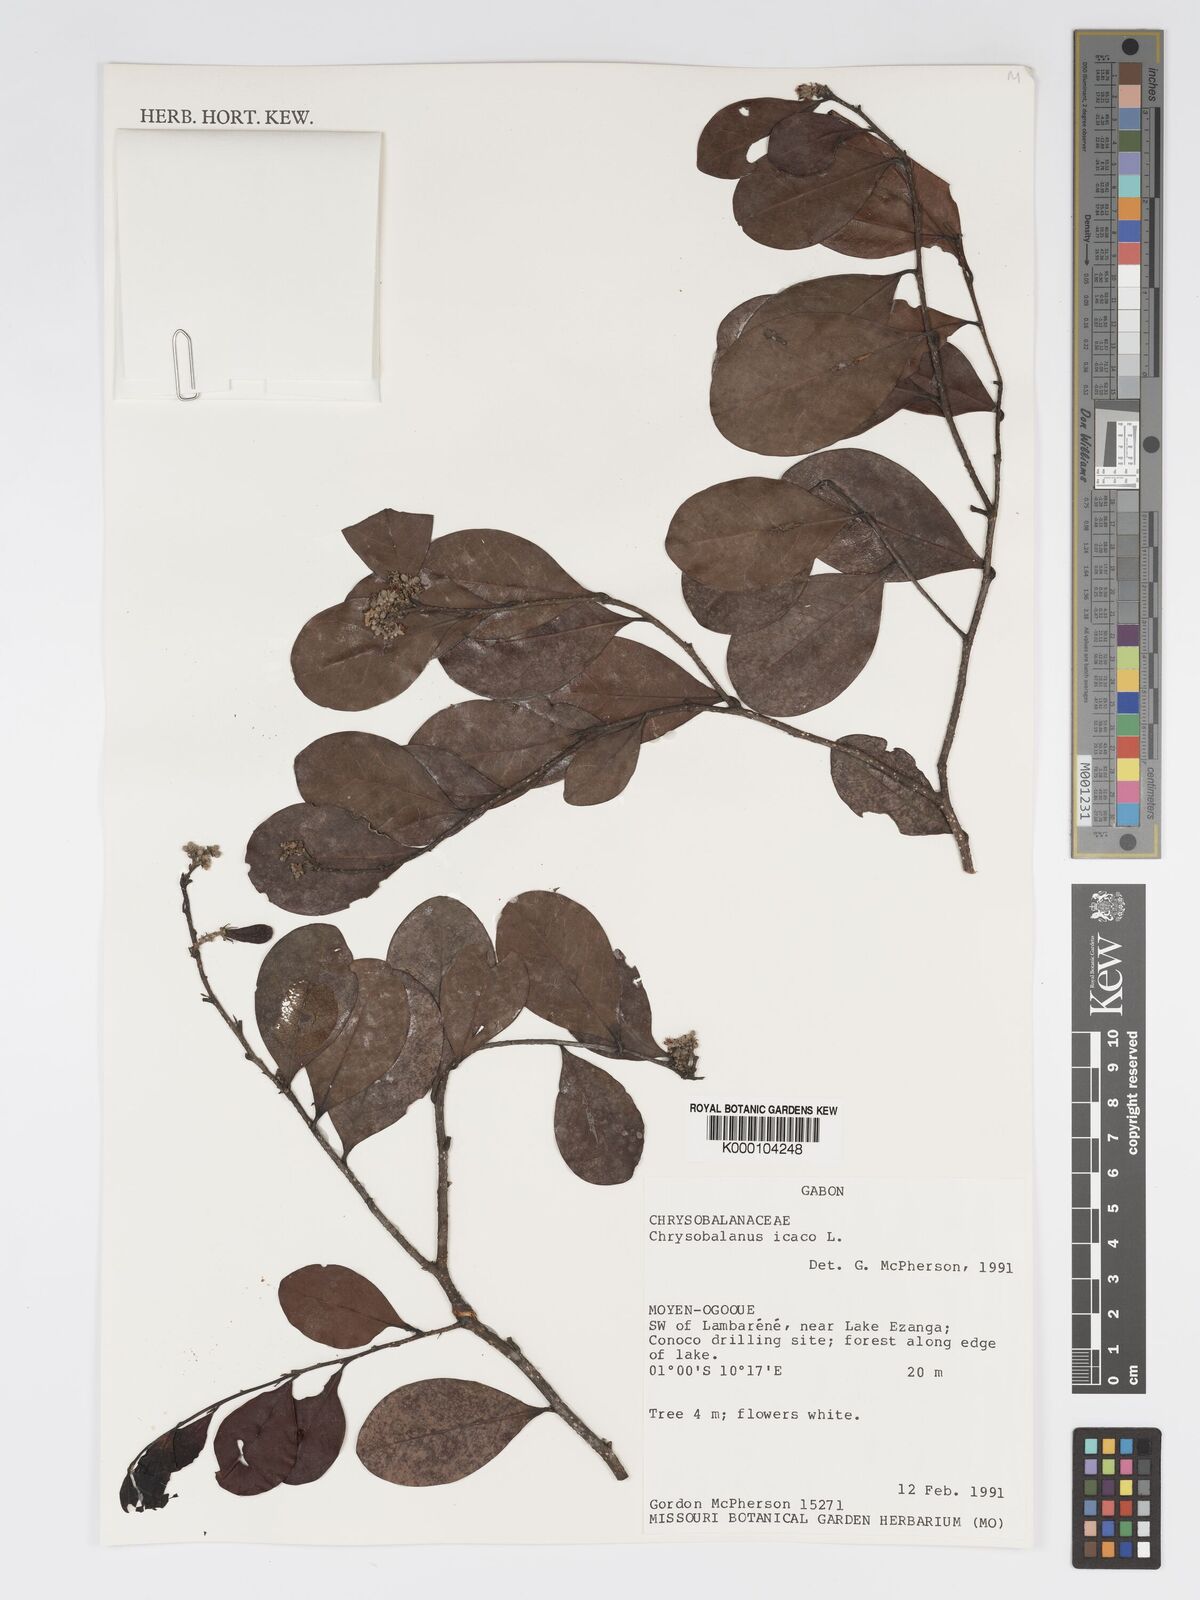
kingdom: Plantae
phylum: Tracheophyta
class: Magnoliopsida
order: Malpighiales
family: Chrysobalanaceae
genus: Chrysobalanus
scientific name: Chrysobalanus icaco
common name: Coco plum
